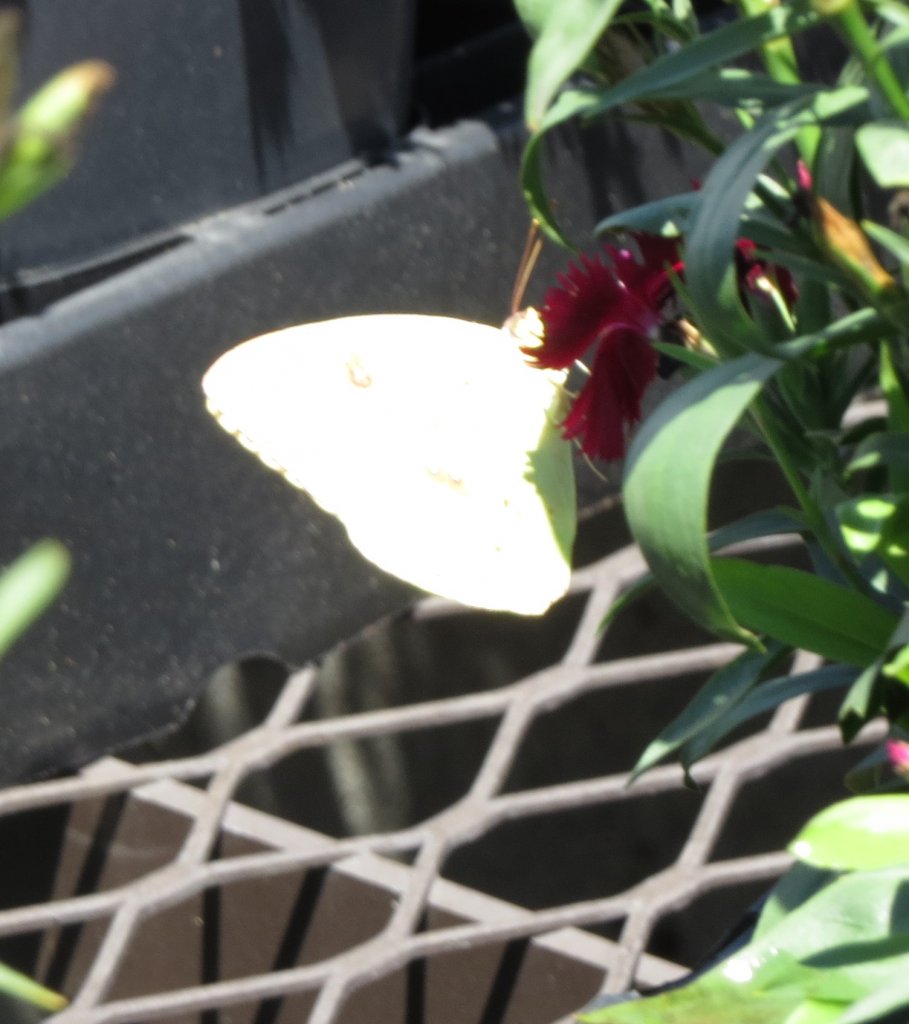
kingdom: Animalia
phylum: Arthropoda
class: Insecta
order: Lepidoptera
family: Pieridae
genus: Phoebis
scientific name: Phoebis sennae
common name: Cloudless Sulphur
